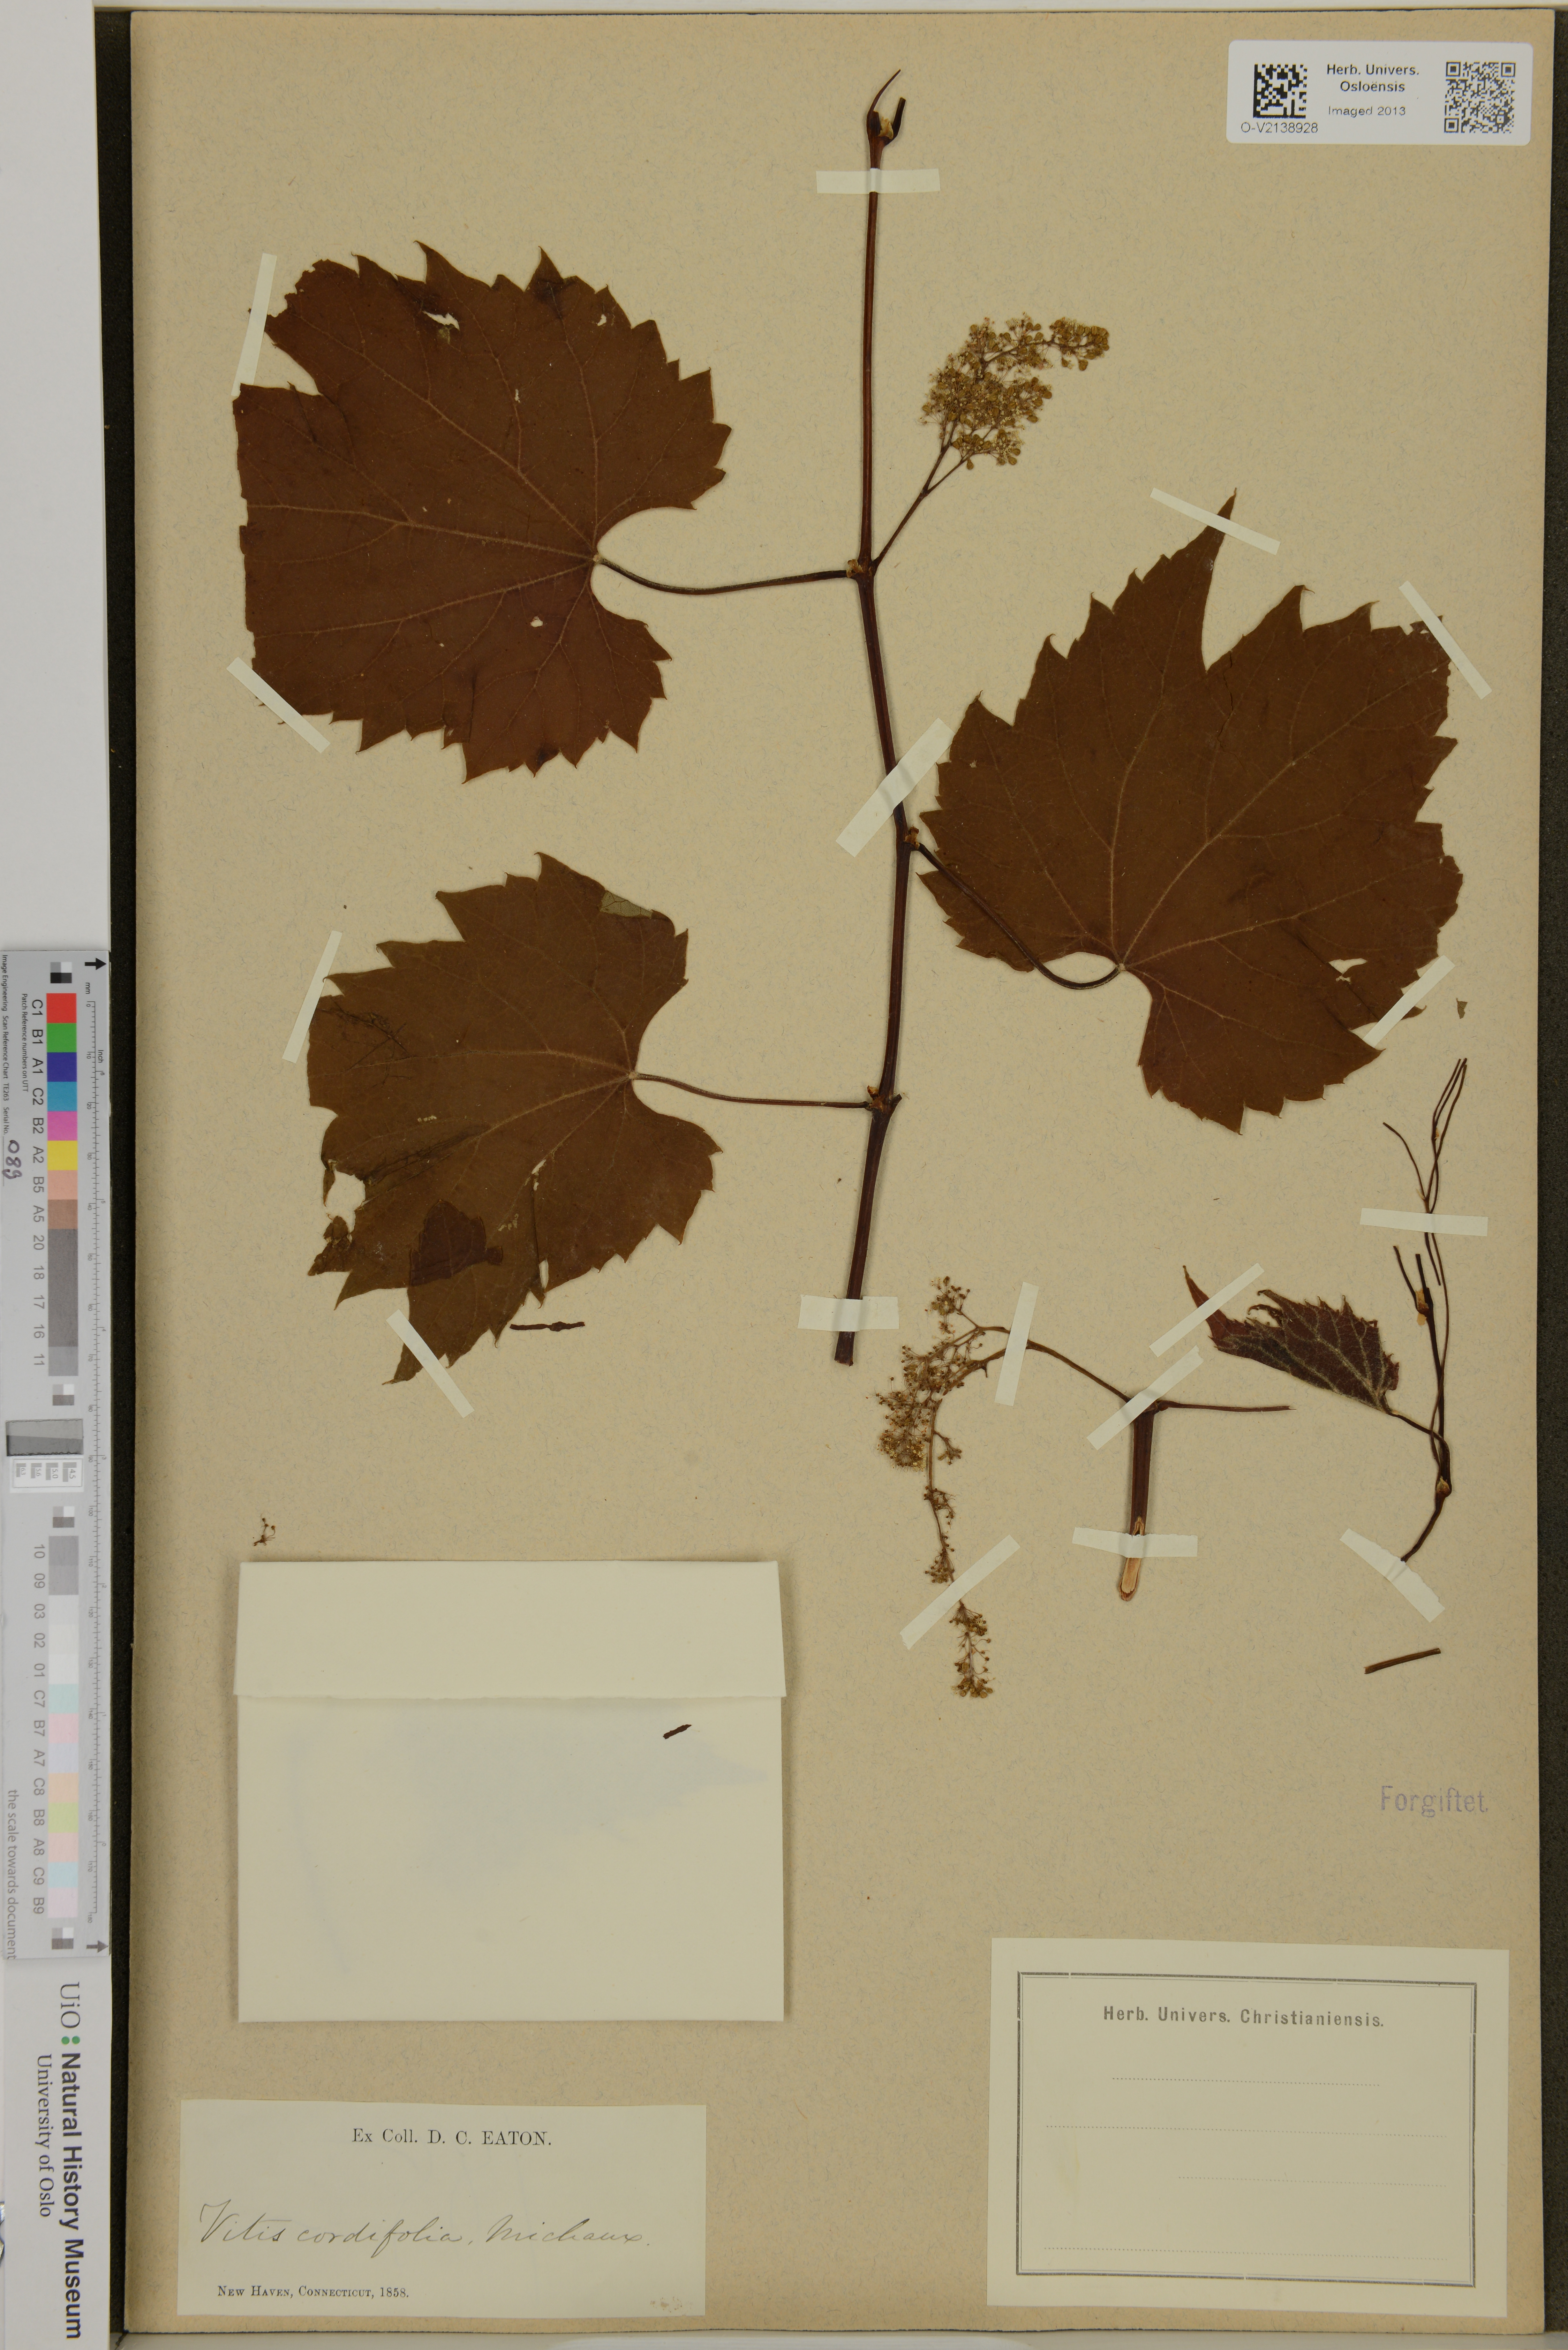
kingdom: Plantae
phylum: Tracheophyta
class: Magnoliopsida
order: Vitales
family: Vitaceae
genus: Vitis
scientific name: Vitis cordifolia
